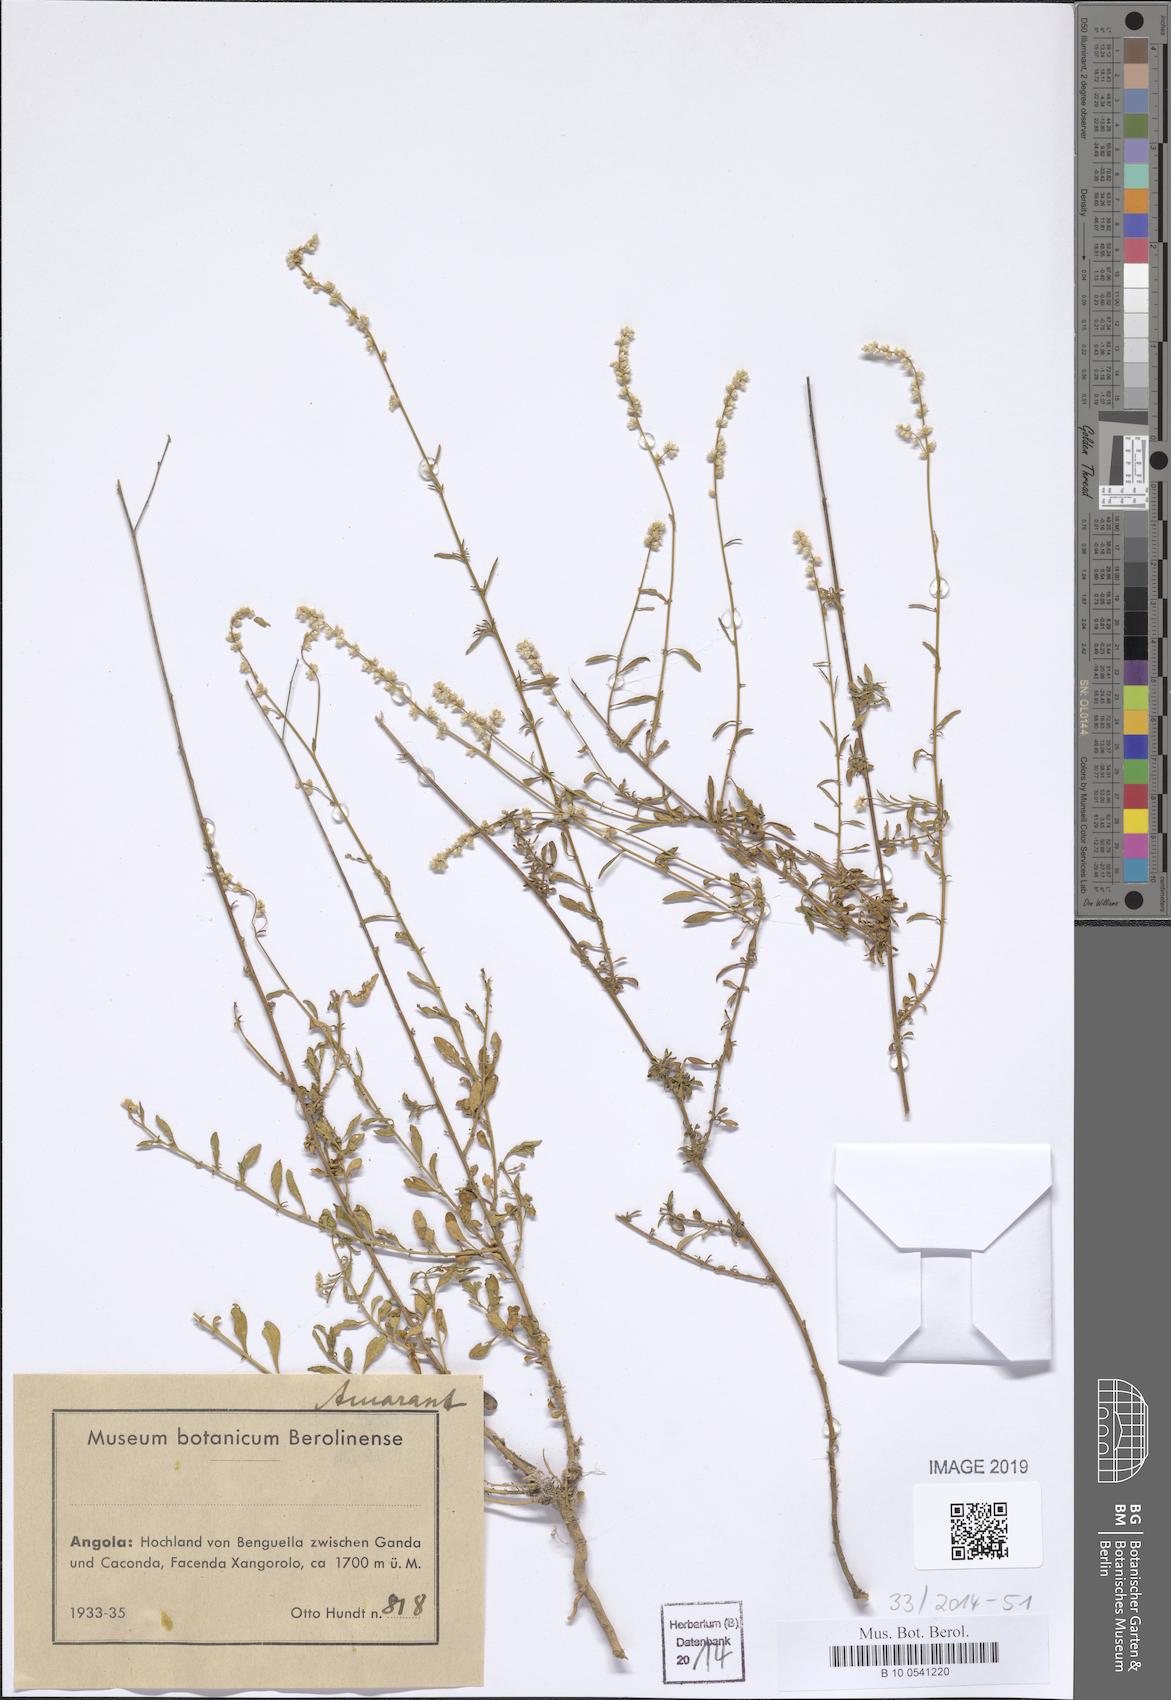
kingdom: Plantae
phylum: Tracheophyta
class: Magnoliopsida
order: Caryophyllales
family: Amaranthaceae
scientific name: Amaranthaceae
